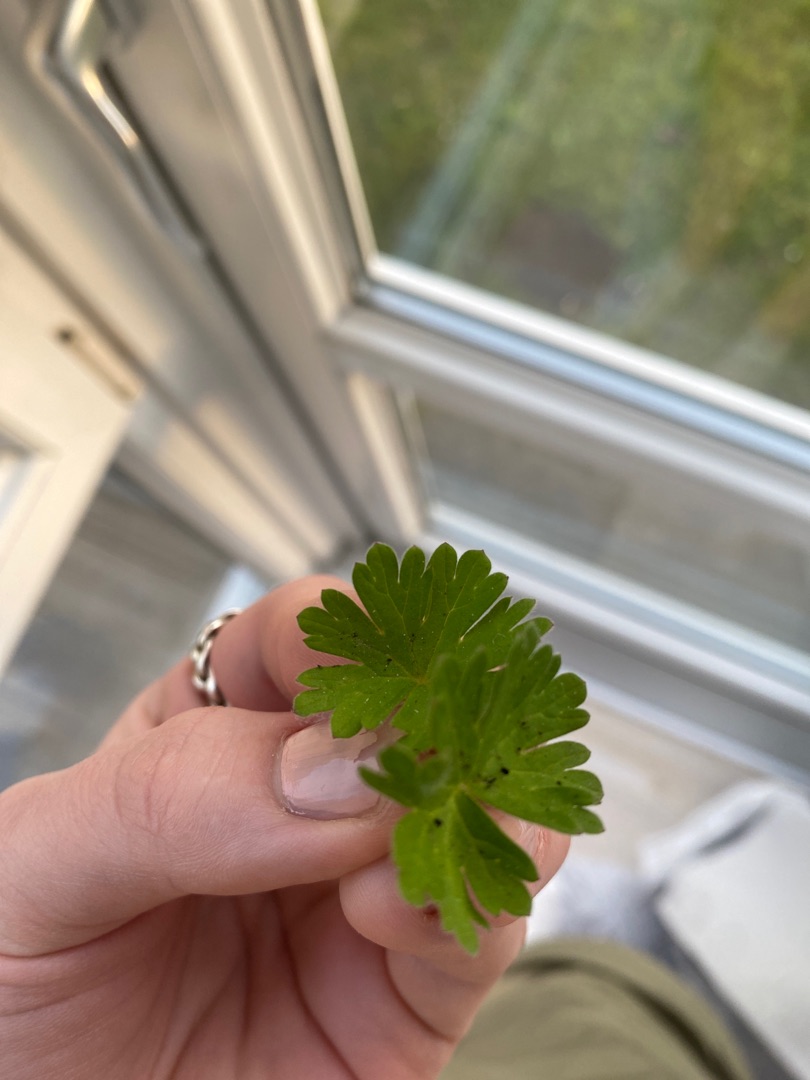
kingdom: Plantae
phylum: Tracheophyta
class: Magnoliopsida
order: Geraniales
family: Geraniaceae
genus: Geranium
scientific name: Geranium
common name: Storkenæbslægten
